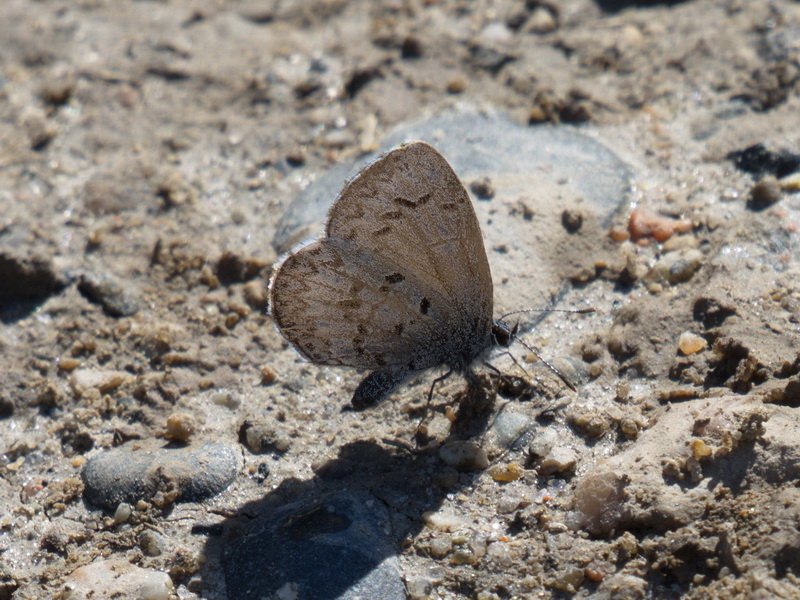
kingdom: Animalia
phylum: Arthropoda
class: Insecta
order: Lepidoptera
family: Lycaenidae
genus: Celastrina
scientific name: Celastrina lucia
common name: Northern Spring Azure
